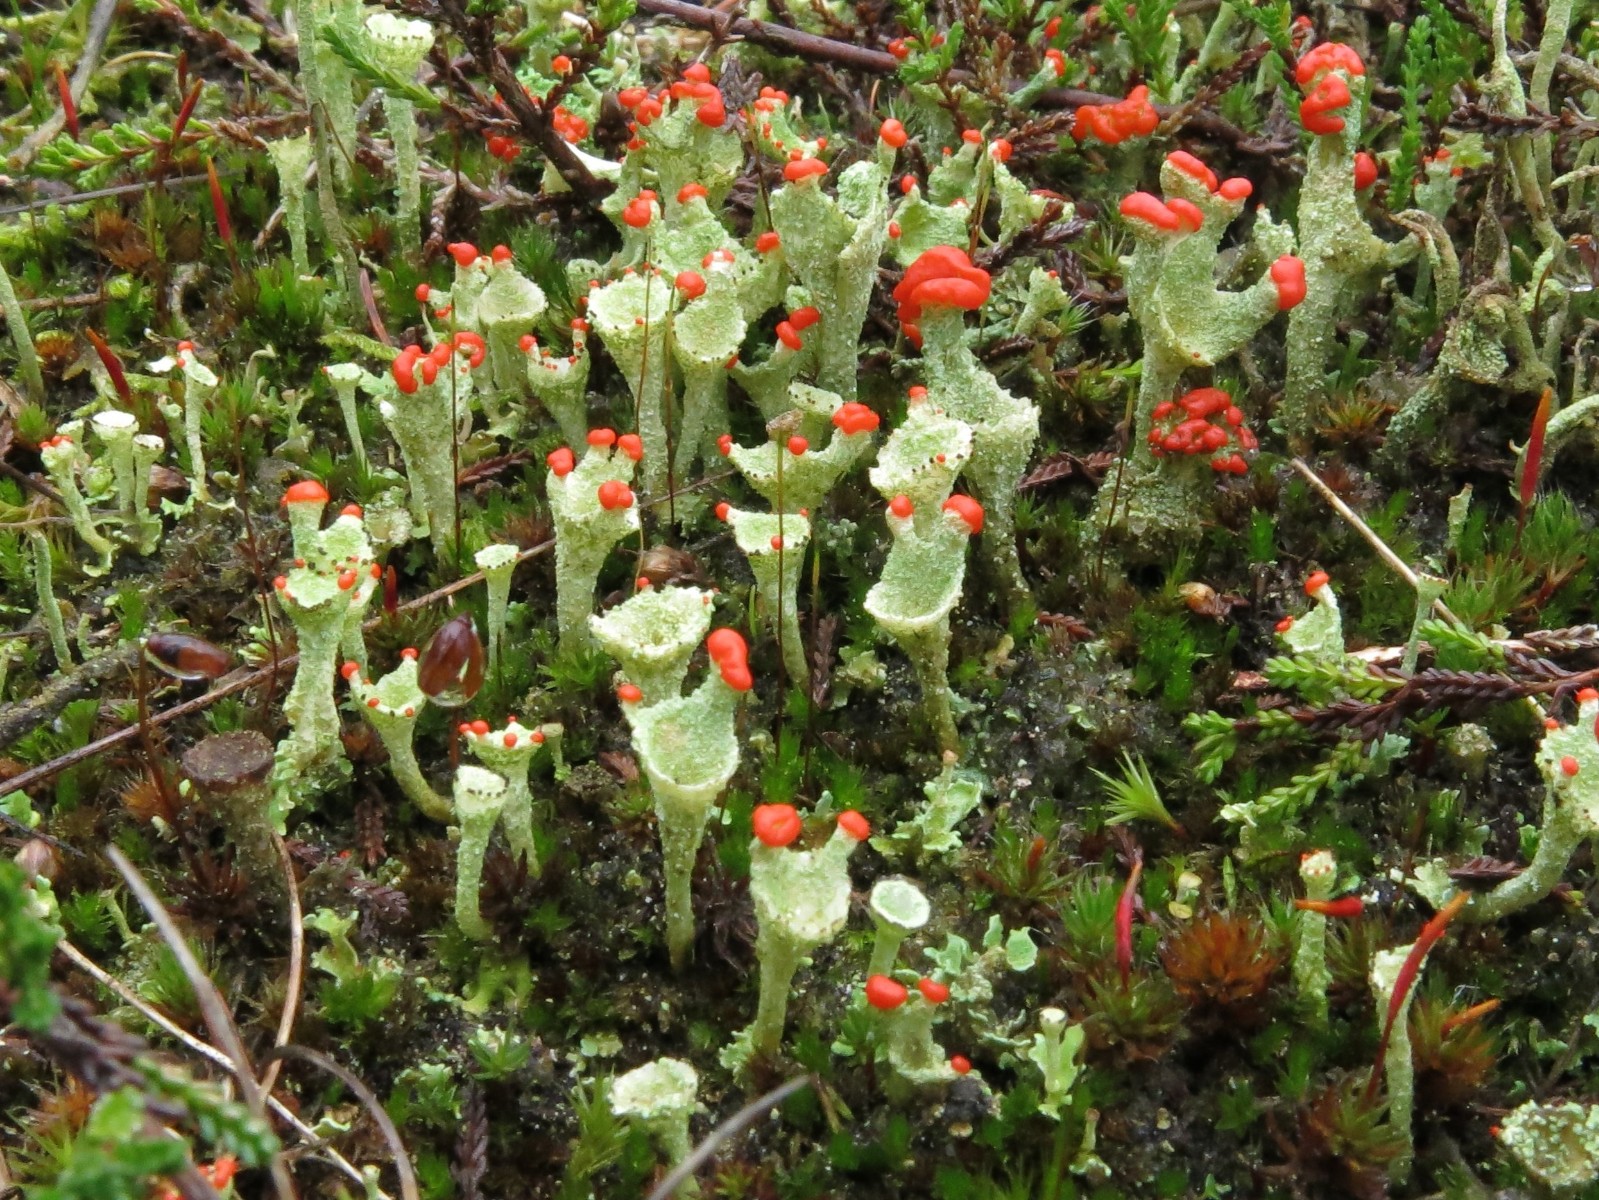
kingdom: Fungi
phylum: Ascomycota
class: Lecanoromycetes
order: Lecanorales
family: Cladoniaceae
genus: Cladonia
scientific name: Cladonia diversa
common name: rød bægerlav
